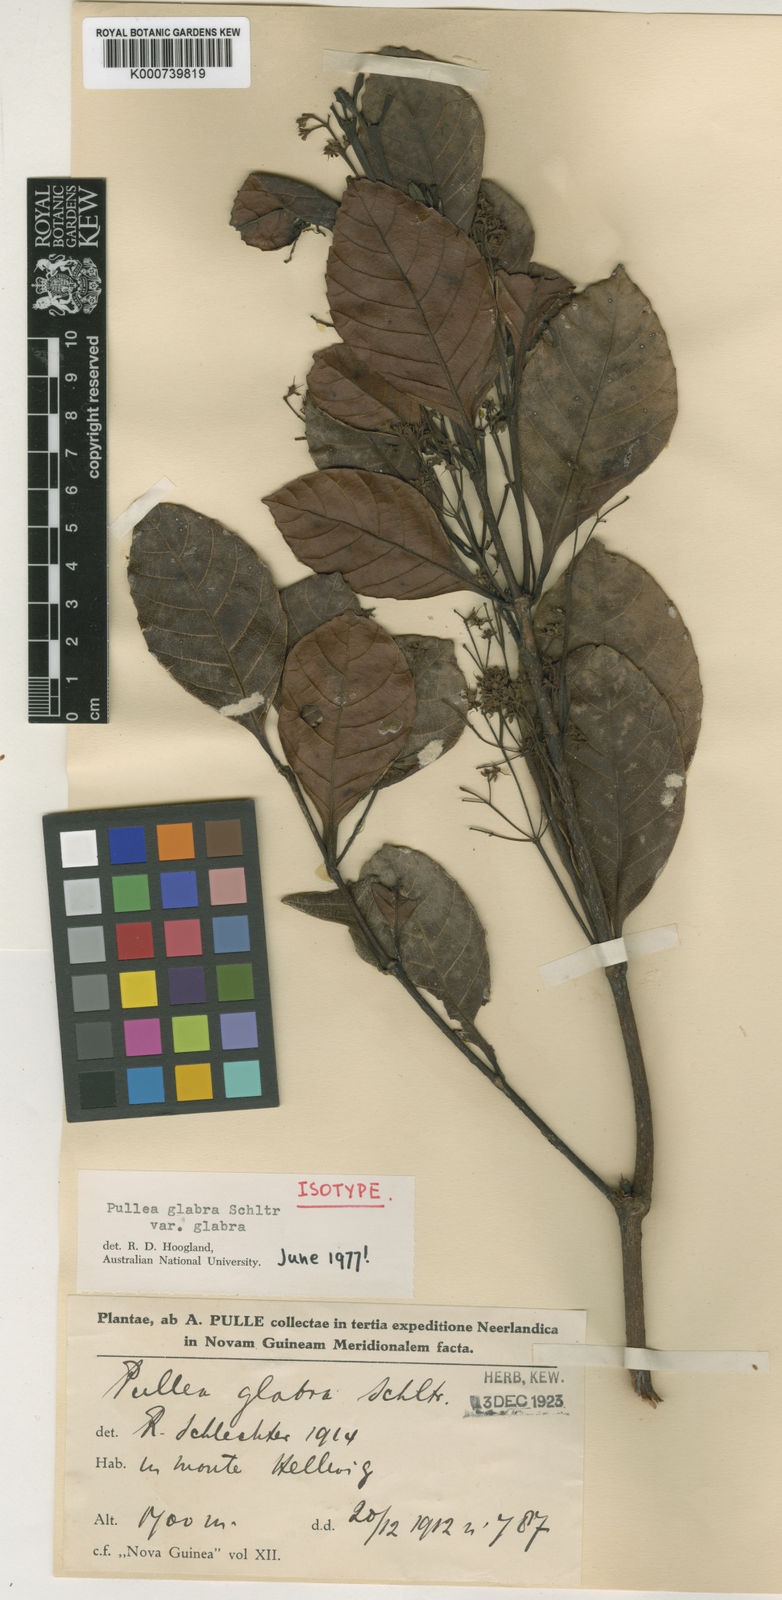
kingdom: Plantae
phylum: Tracheophyta
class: Magnoliopsida
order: Oxalidales
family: Cunoniaceae
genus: Pullea
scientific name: Pullea glabra
